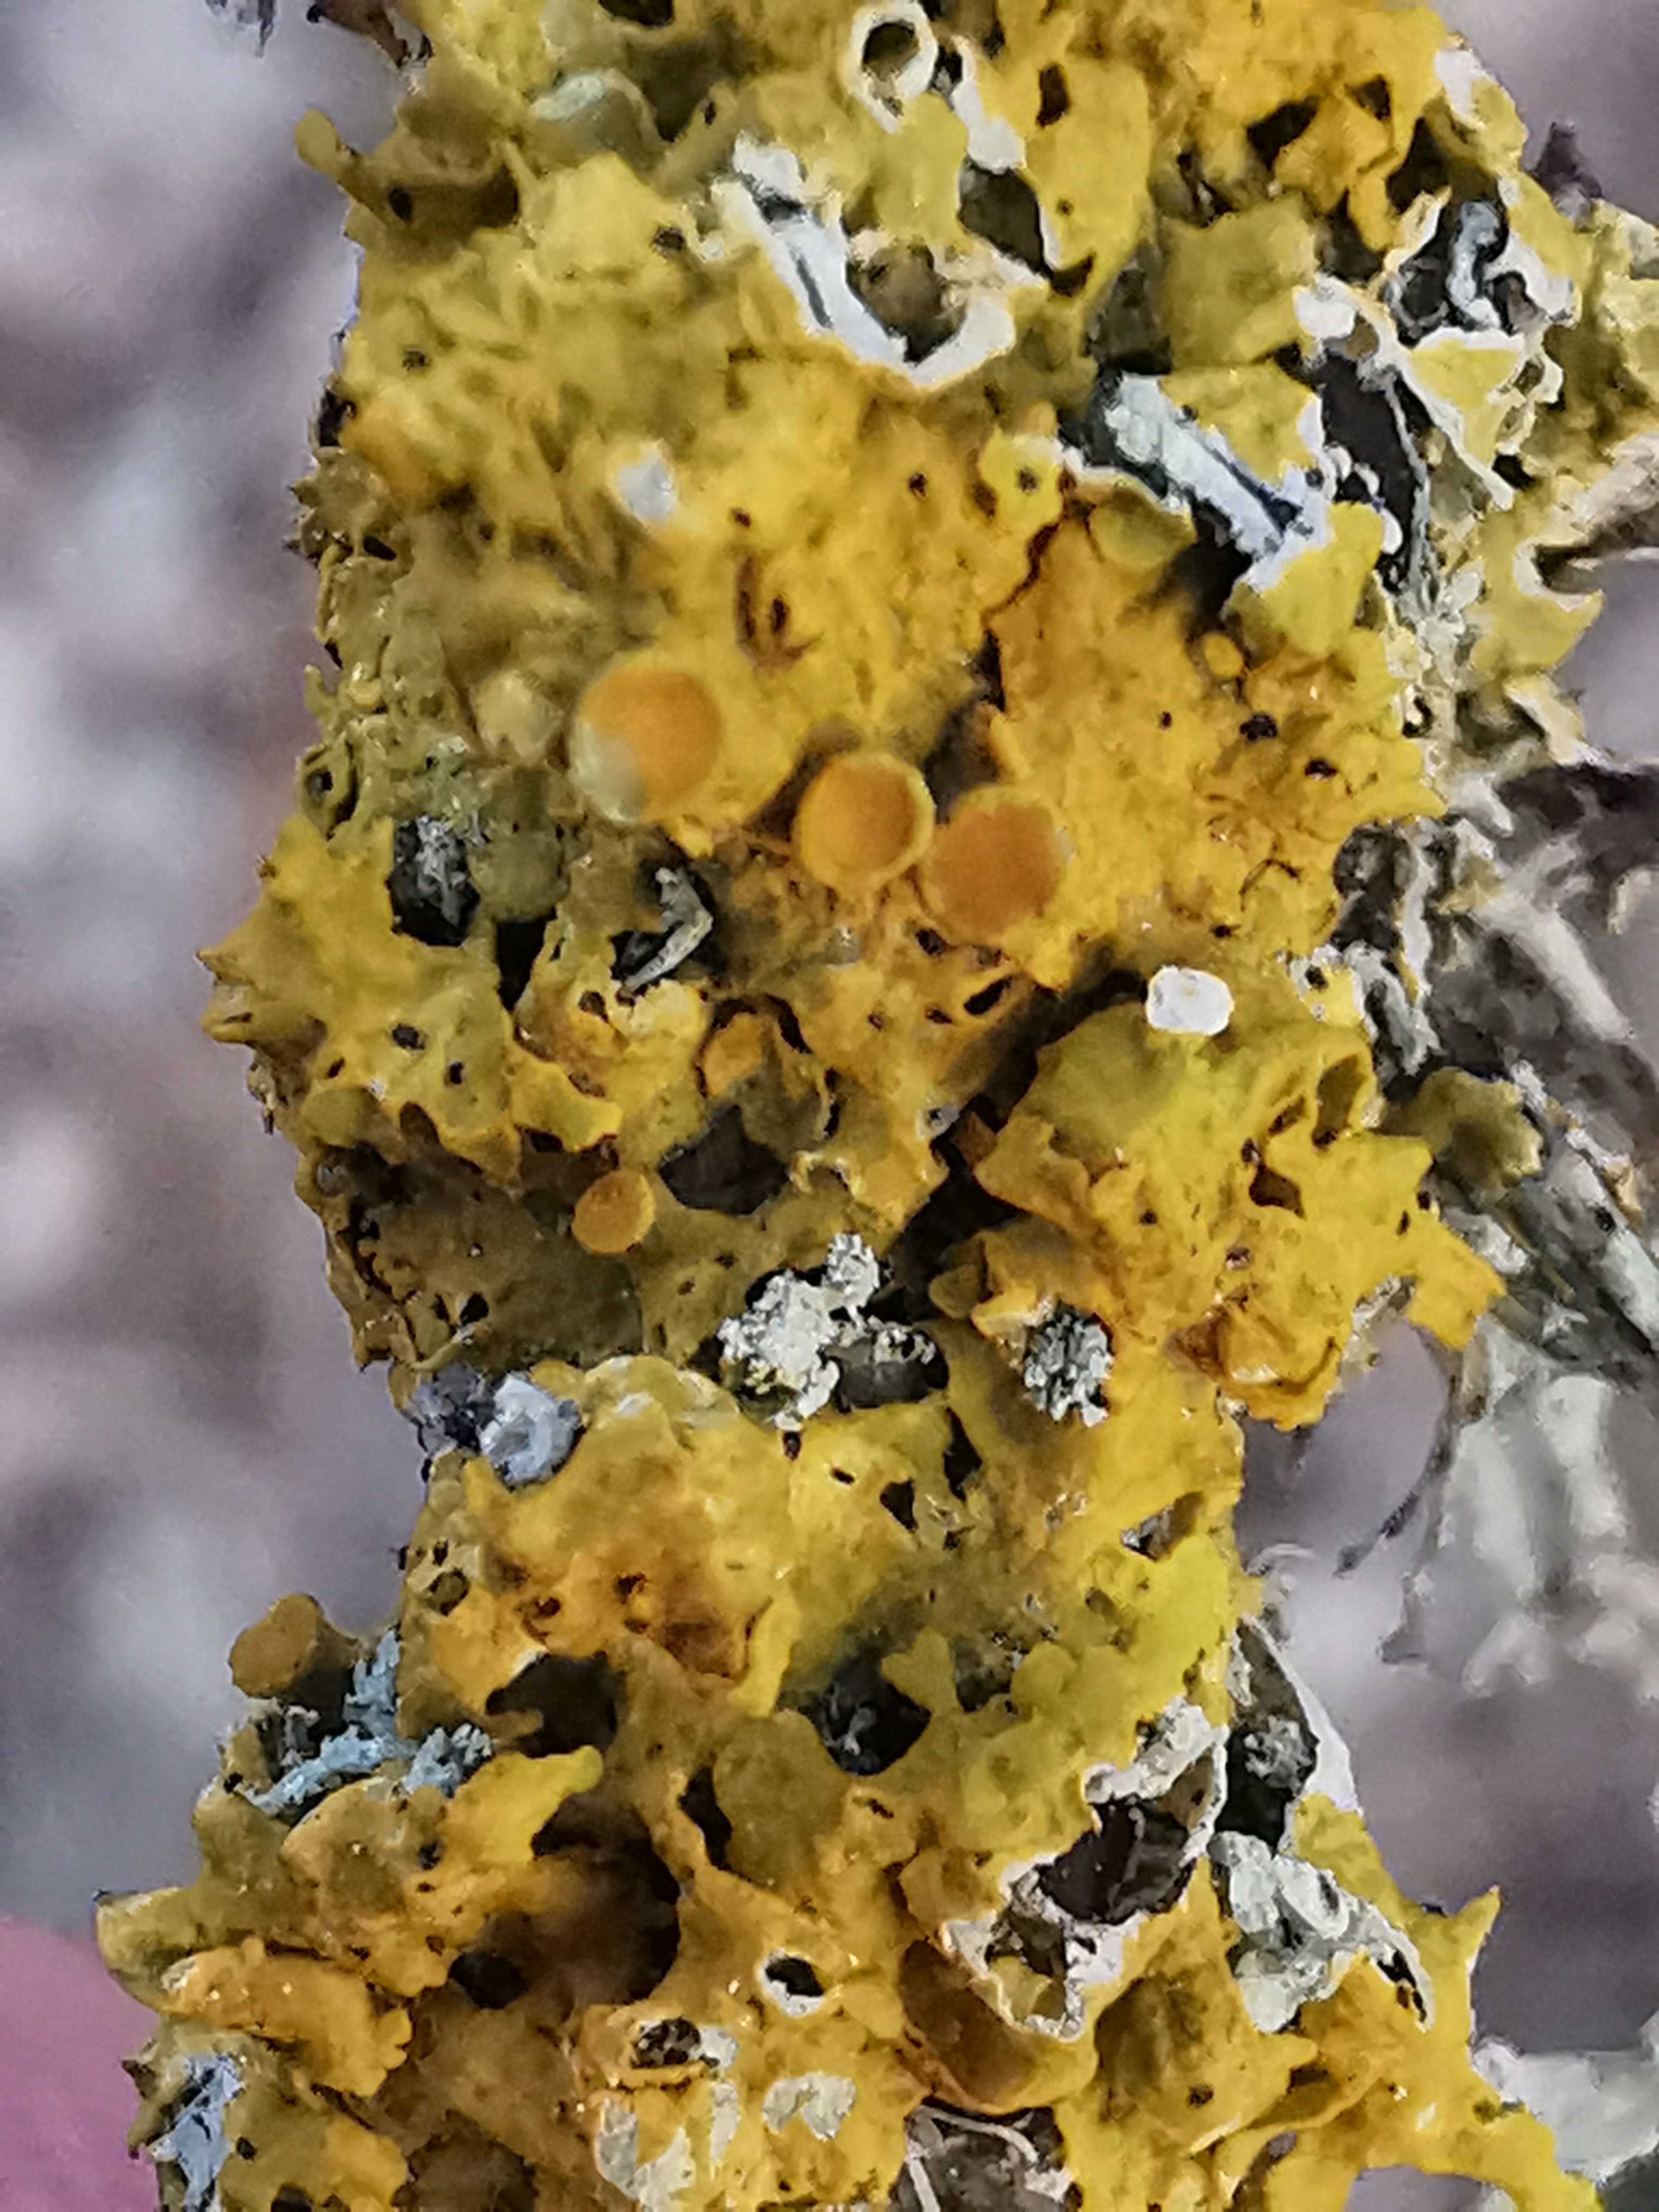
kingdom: Fungi
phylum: Ascomycota
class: Lecanoromycetes
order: Teloschistales
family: Teloschistaceae
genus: Xanthoria
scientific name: Xanthoria parietina
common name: almindelig væggelav
